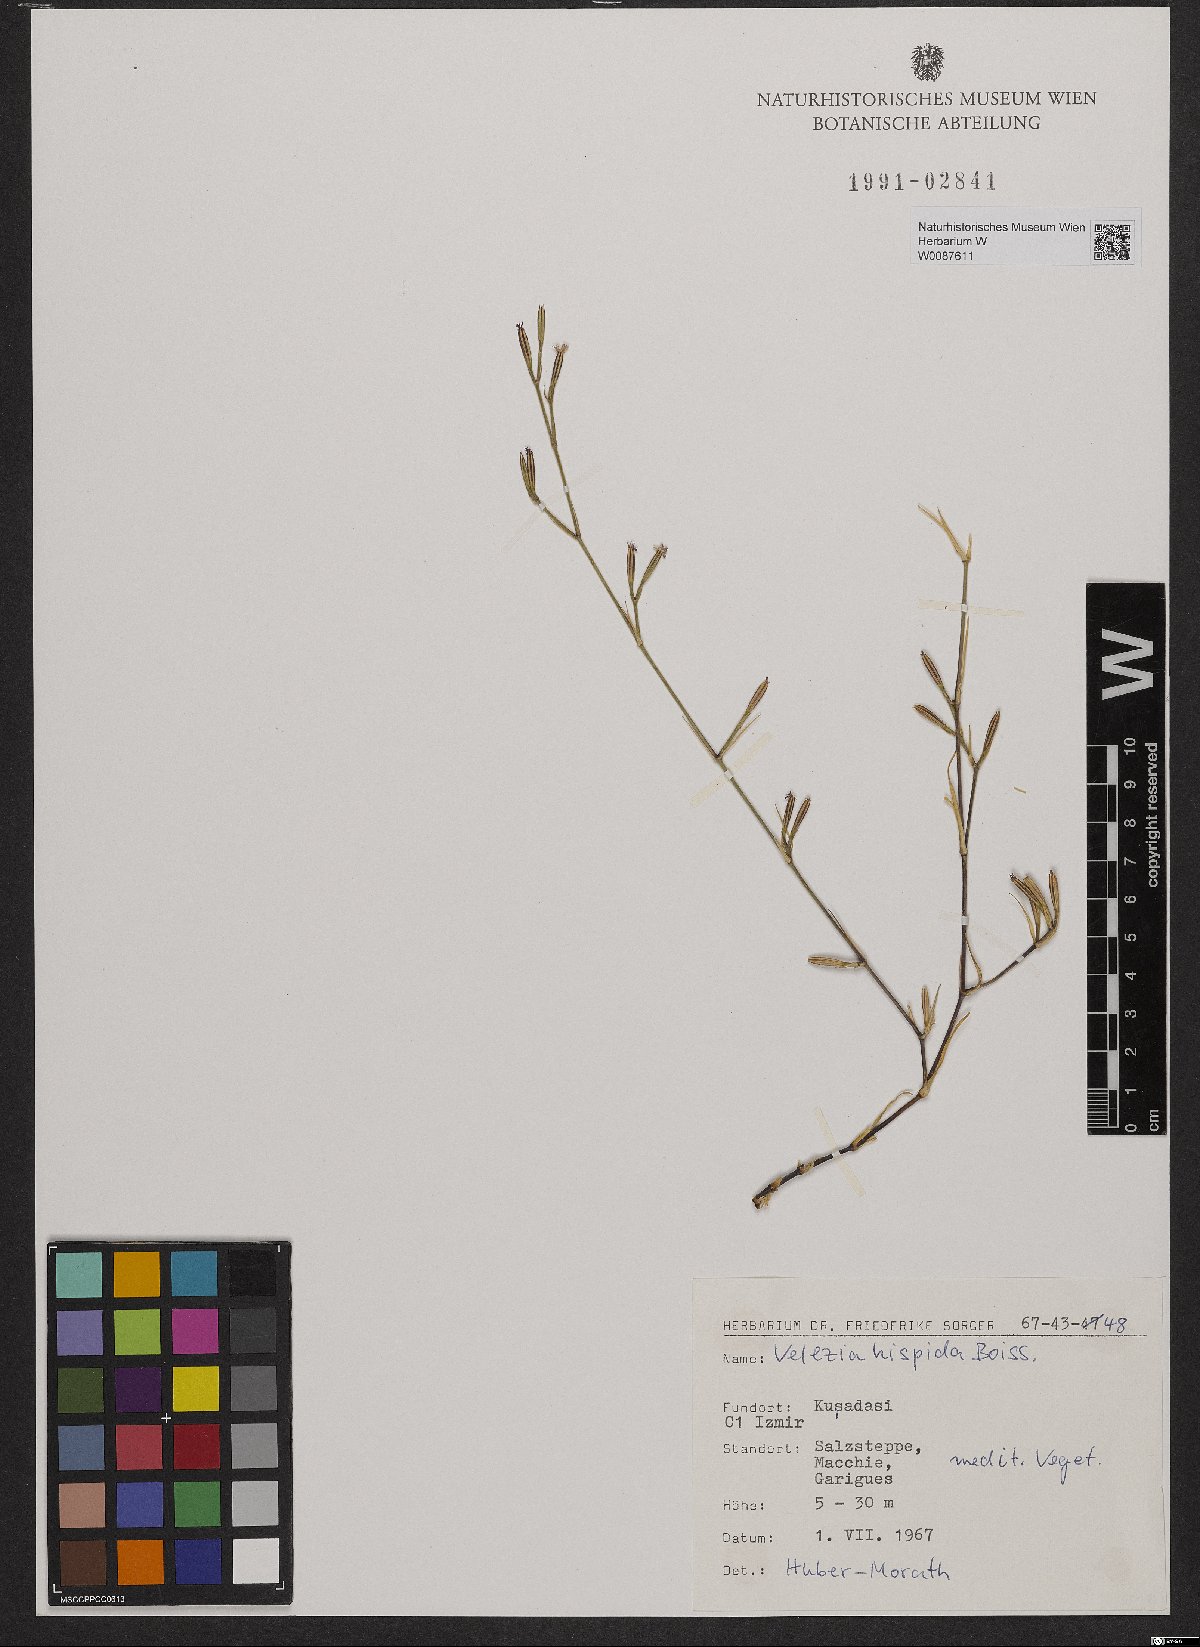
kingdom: Plantae
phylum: Tracheophyta
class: Magnoliopsida
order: Caryophyllales
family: Caryophyllaceae
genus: Dianthus
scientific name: Dianthus hispidus
